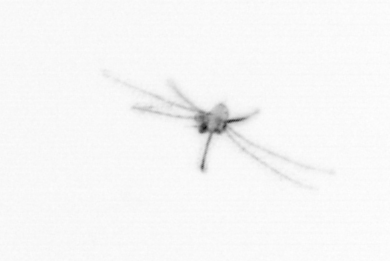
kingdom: Animalia
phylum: Cnidaria
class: Hydrozoa
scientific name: Hydrozoa
